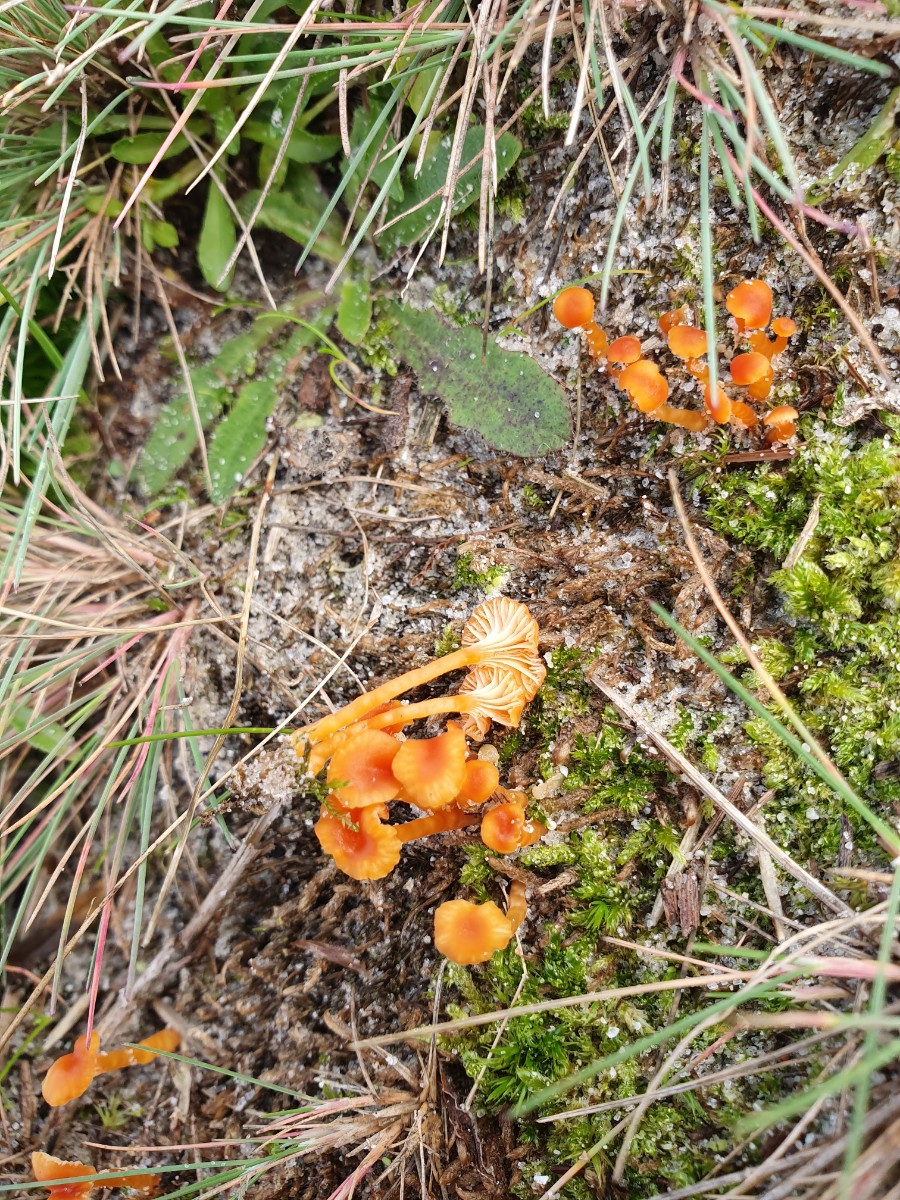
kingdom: Fungi
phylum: Basidiomycota
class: Agaricomycetes
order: Hymenochaetales
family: Rickenellaceae
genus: Rickenella
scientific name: Rickenella fibula
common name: orange mosnavlehat
